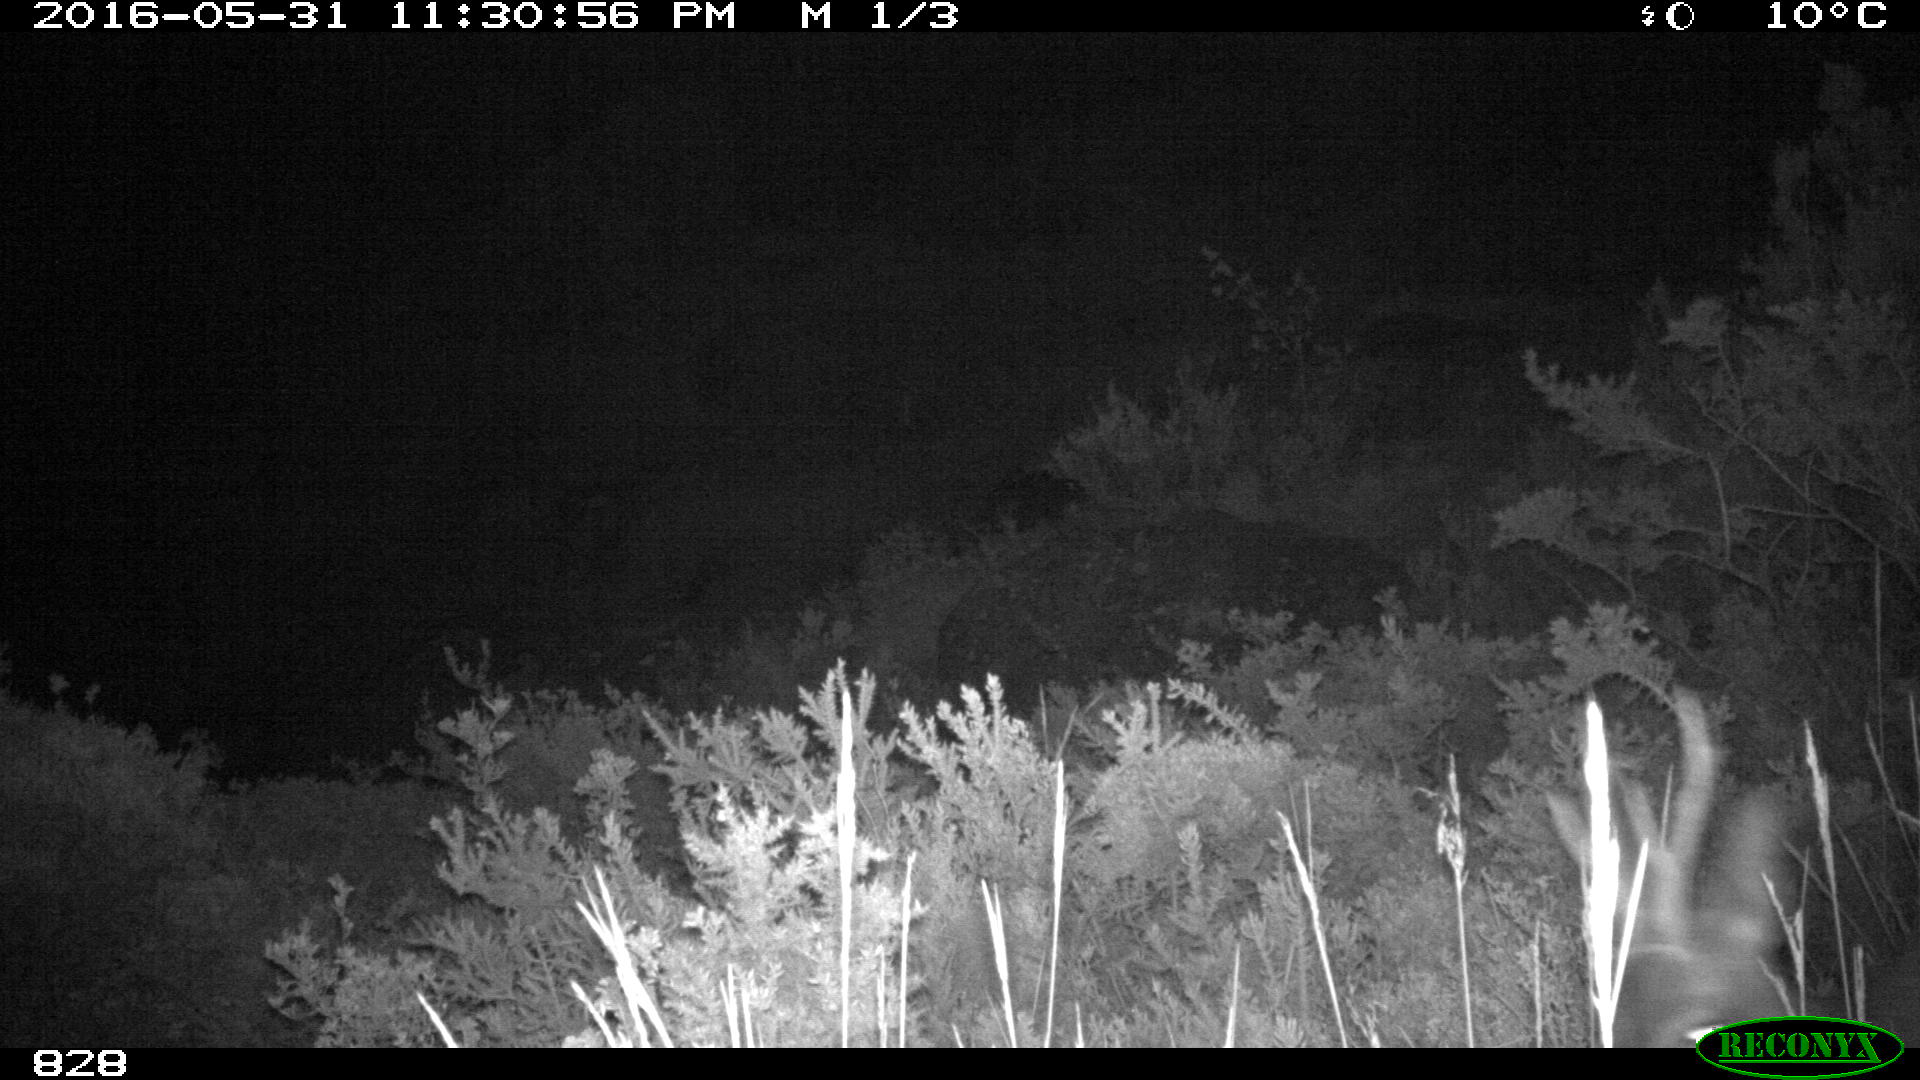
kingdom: Animalia
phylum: Chordata
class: Mammalia
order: Artiodactyla
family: Cervidae
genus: Capreolus
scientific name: Capreolus capreolus
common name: Western roe deer
